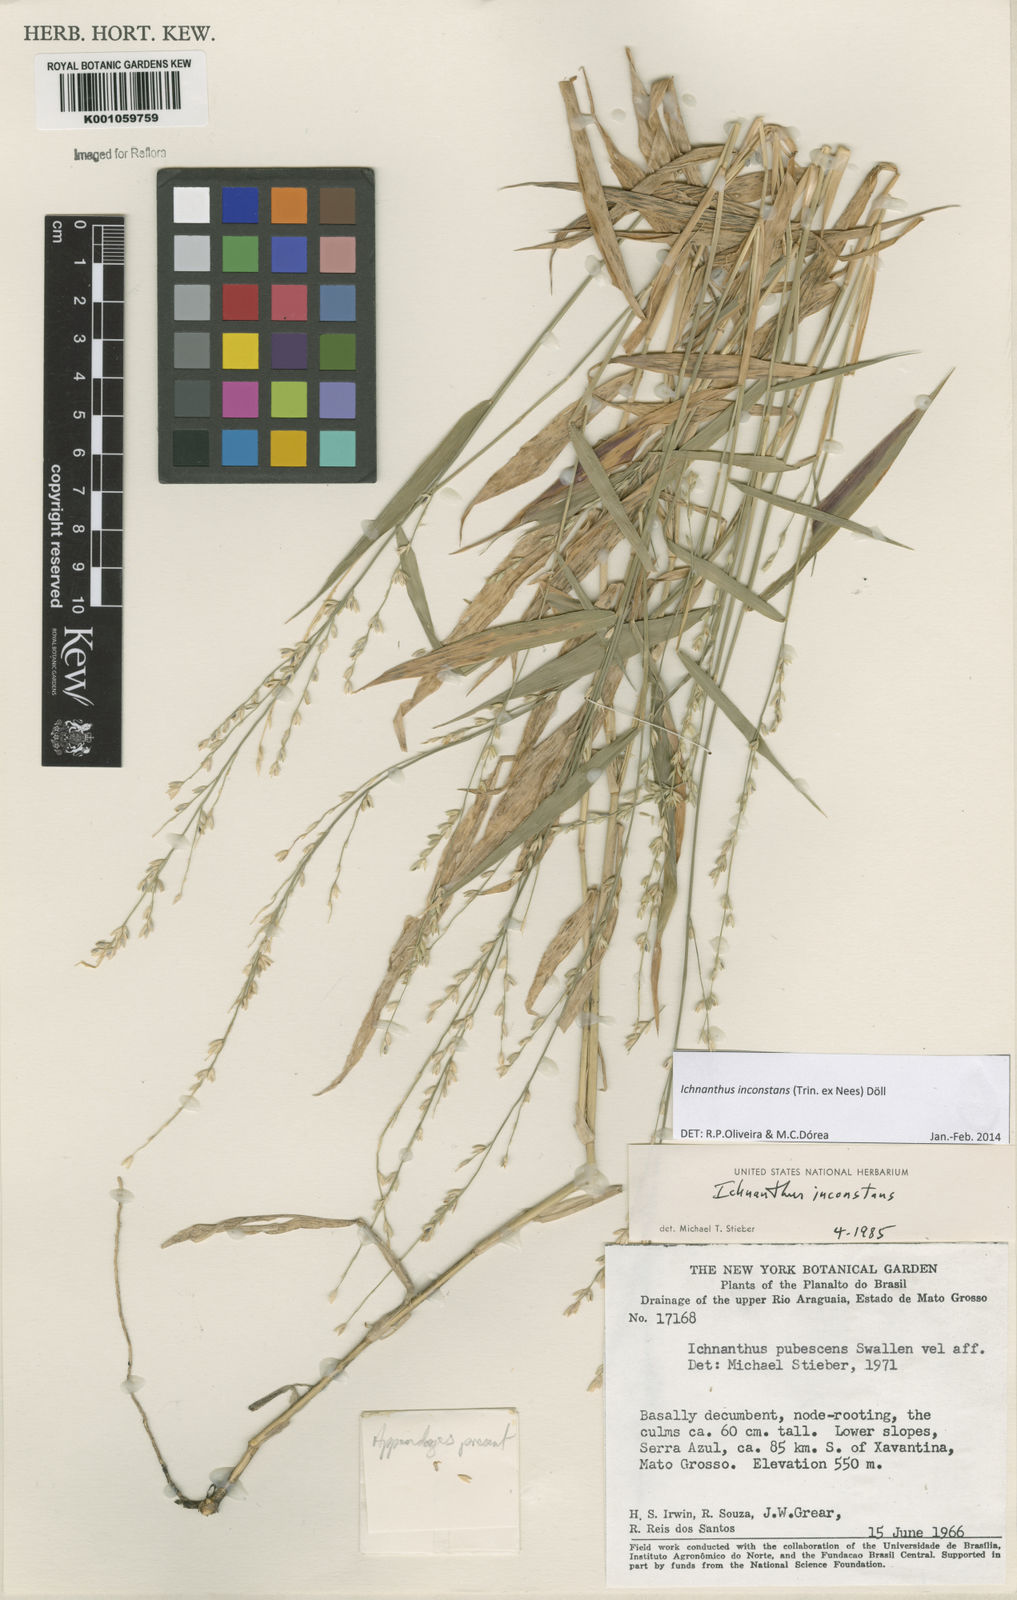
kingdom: Plantae
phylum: Tracheophyta
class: Liliopsida
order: Poales
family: Poaceae
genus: Ichnanthus
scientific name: Ichnanthus
